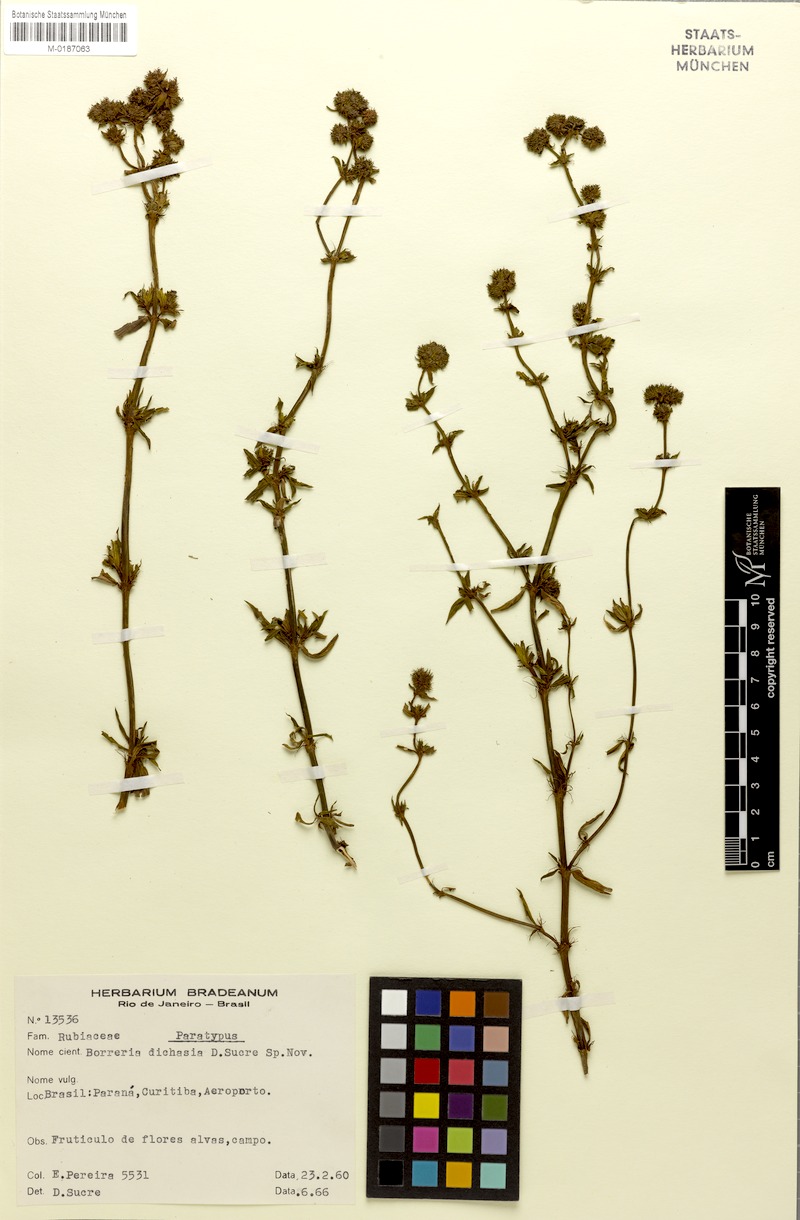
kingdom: Plantae
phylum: Tracheophyta
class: Magnoliopsida
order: Gentianales
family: Rubiaceae
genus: Galianthe
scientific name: Galianthe cymosa
